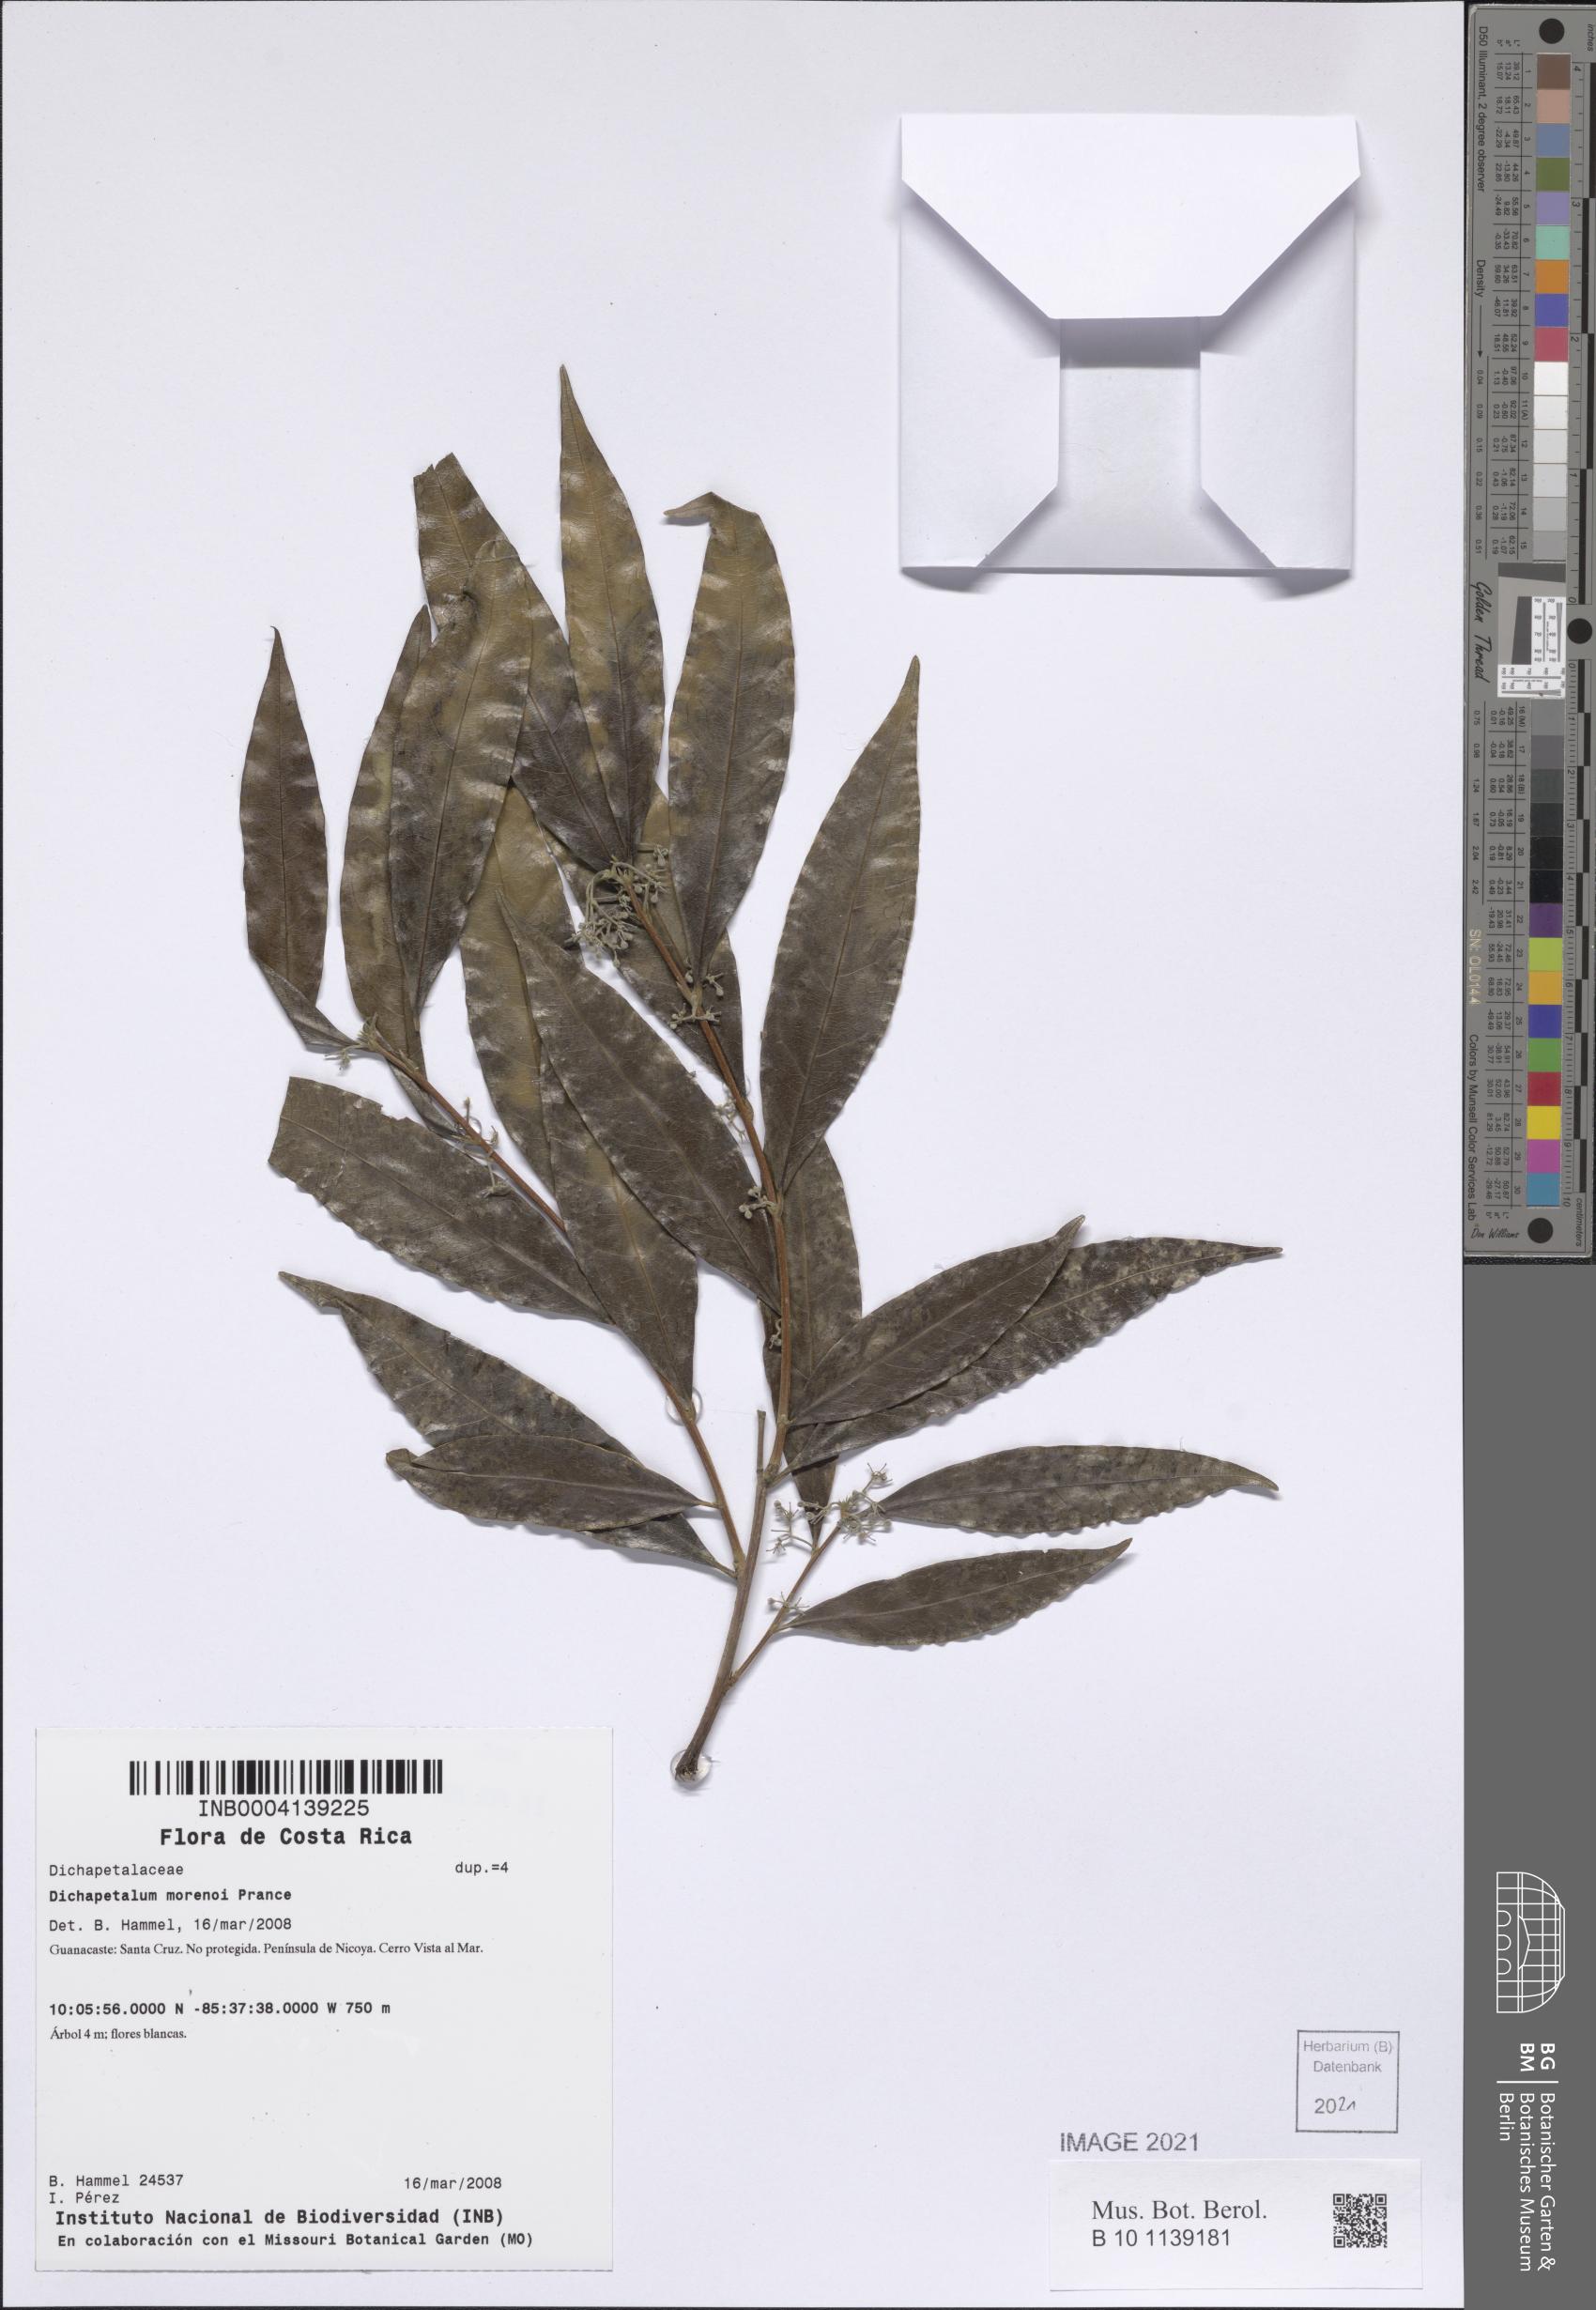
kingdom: Plantae
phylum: Tracheophyta
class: Magnoliopsida
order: Malpighiales
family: Dichapetalaceae
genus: Dichapetalum
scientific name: Dichapetalum morenoi
